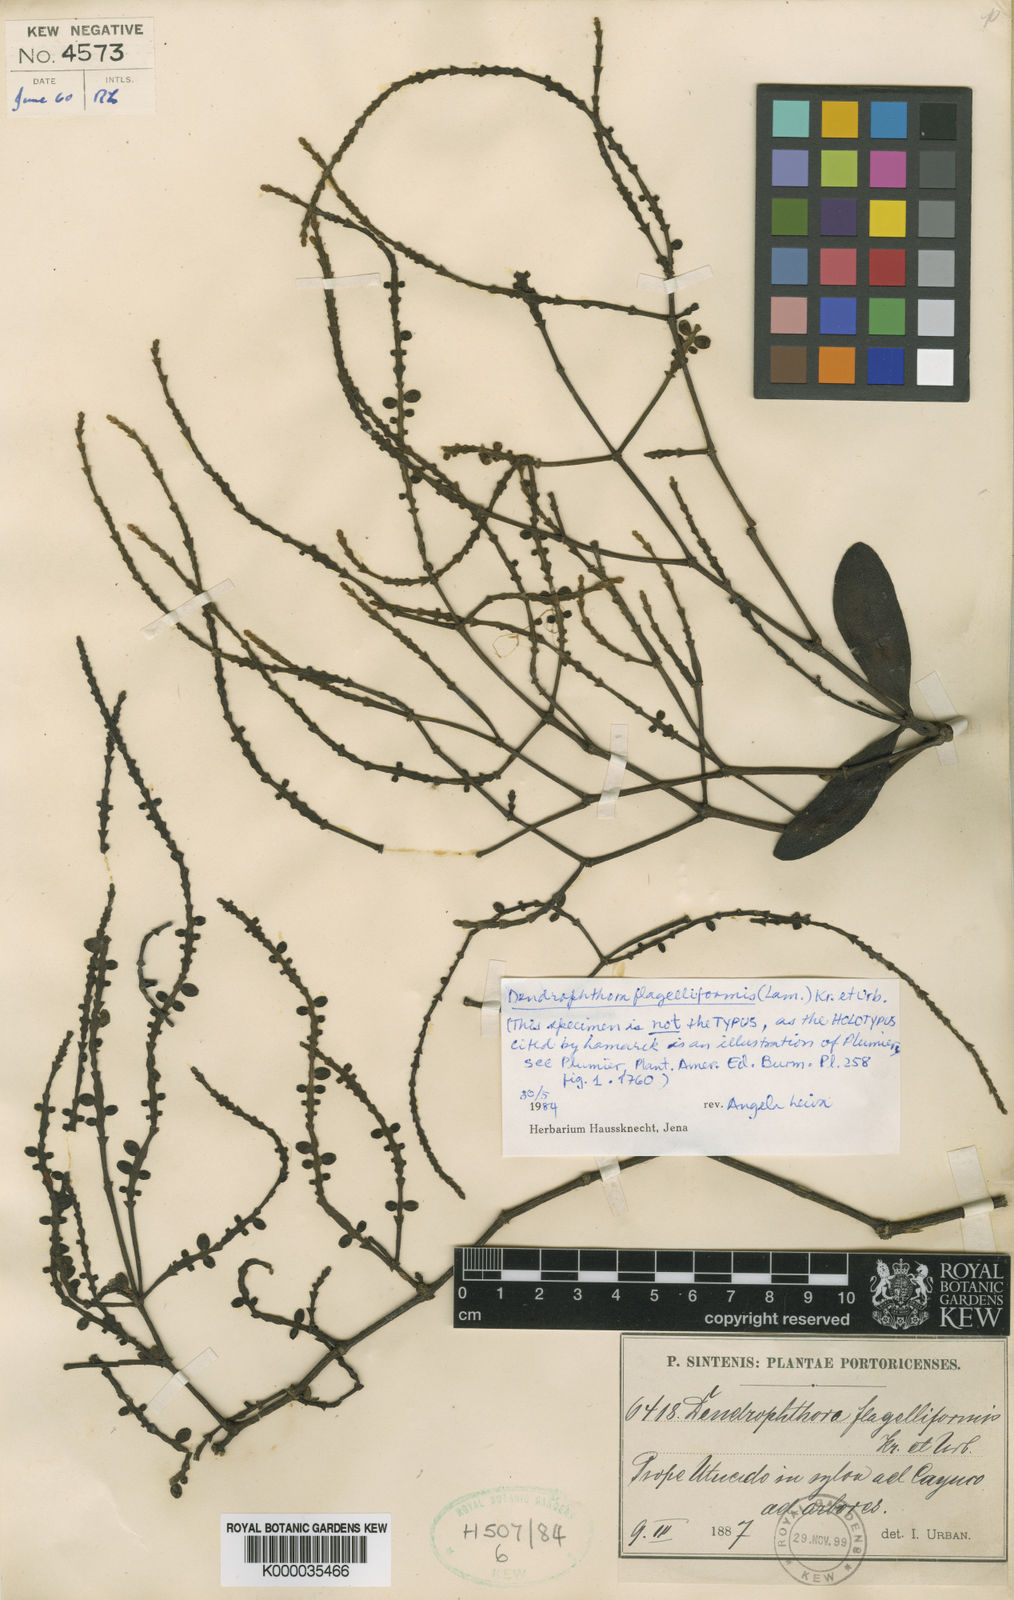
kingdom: Plantae
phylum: Tracheophyta
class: Magnoliopsida
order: Santalales
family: Viscaceae
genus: Dendrophthora
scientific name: Dendrophthora flagelliformis
